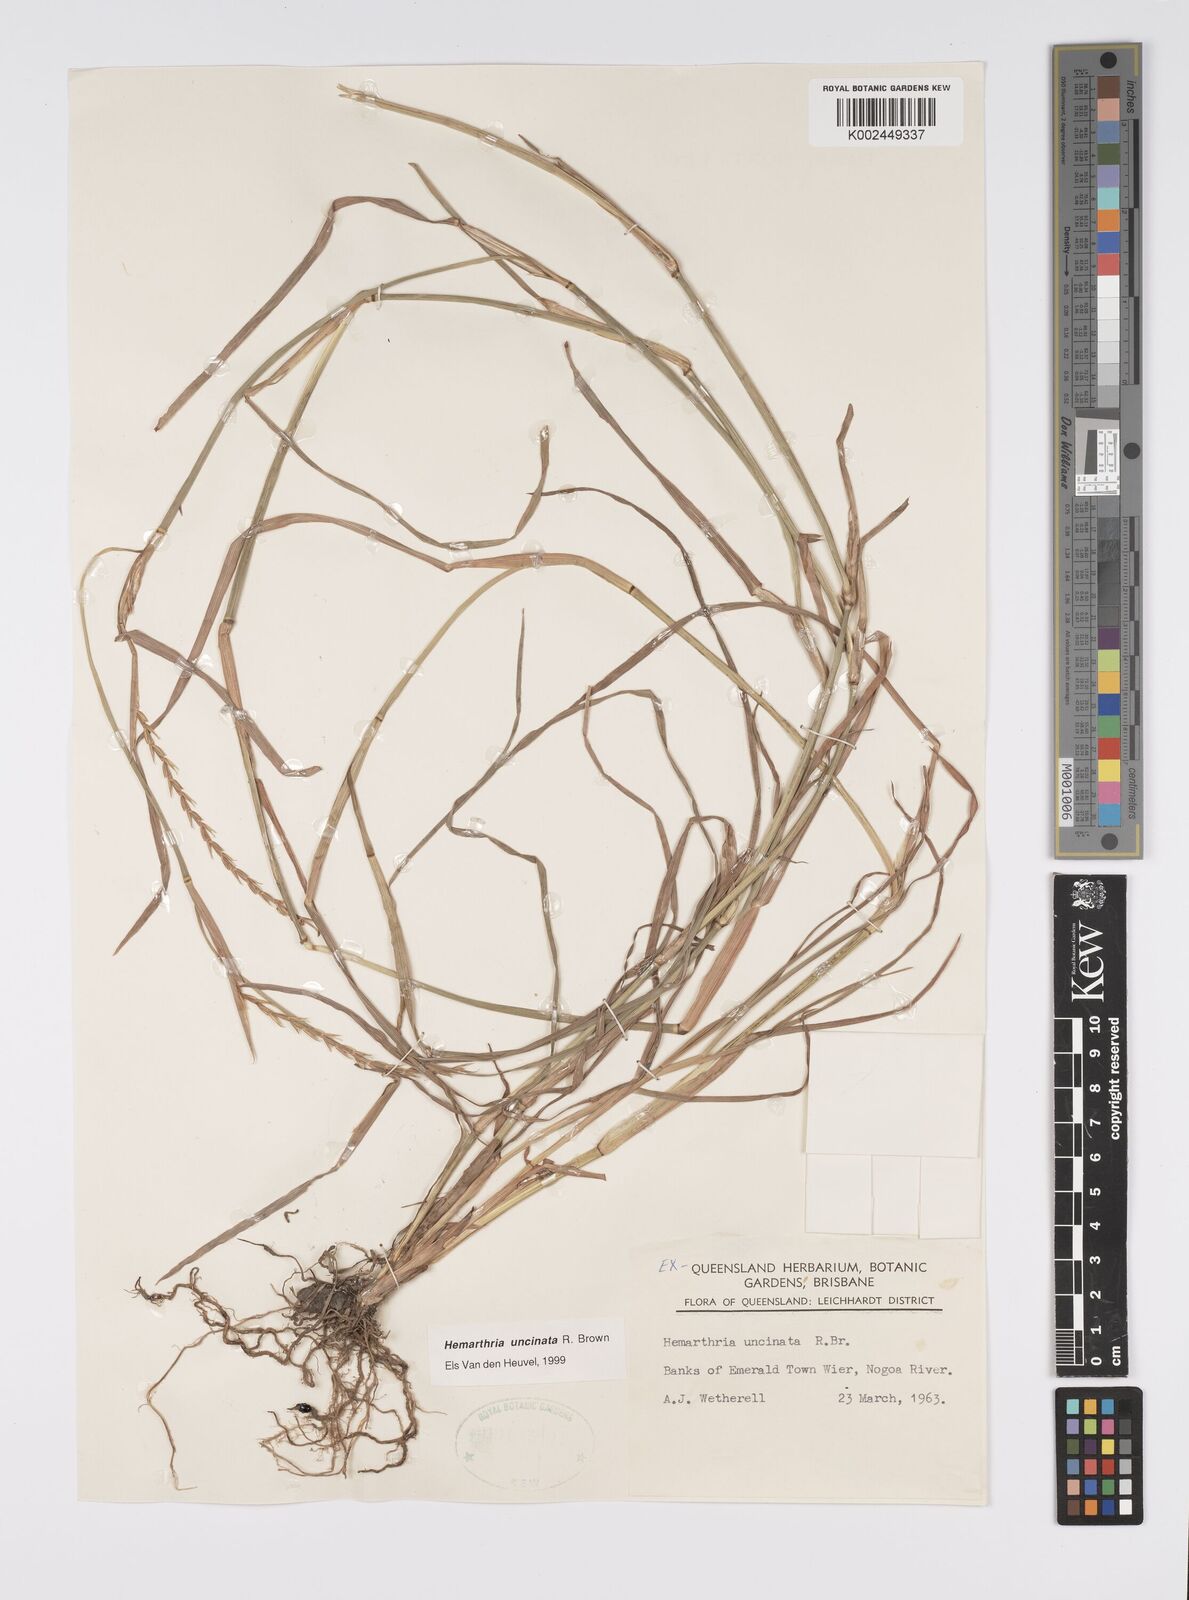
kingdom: Plantae
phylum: Tracheophyta
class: Liliopsida
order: Poales
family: Poaceae
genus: Hemarthria
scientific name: Hemarthria uncinata
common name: Matgrass
